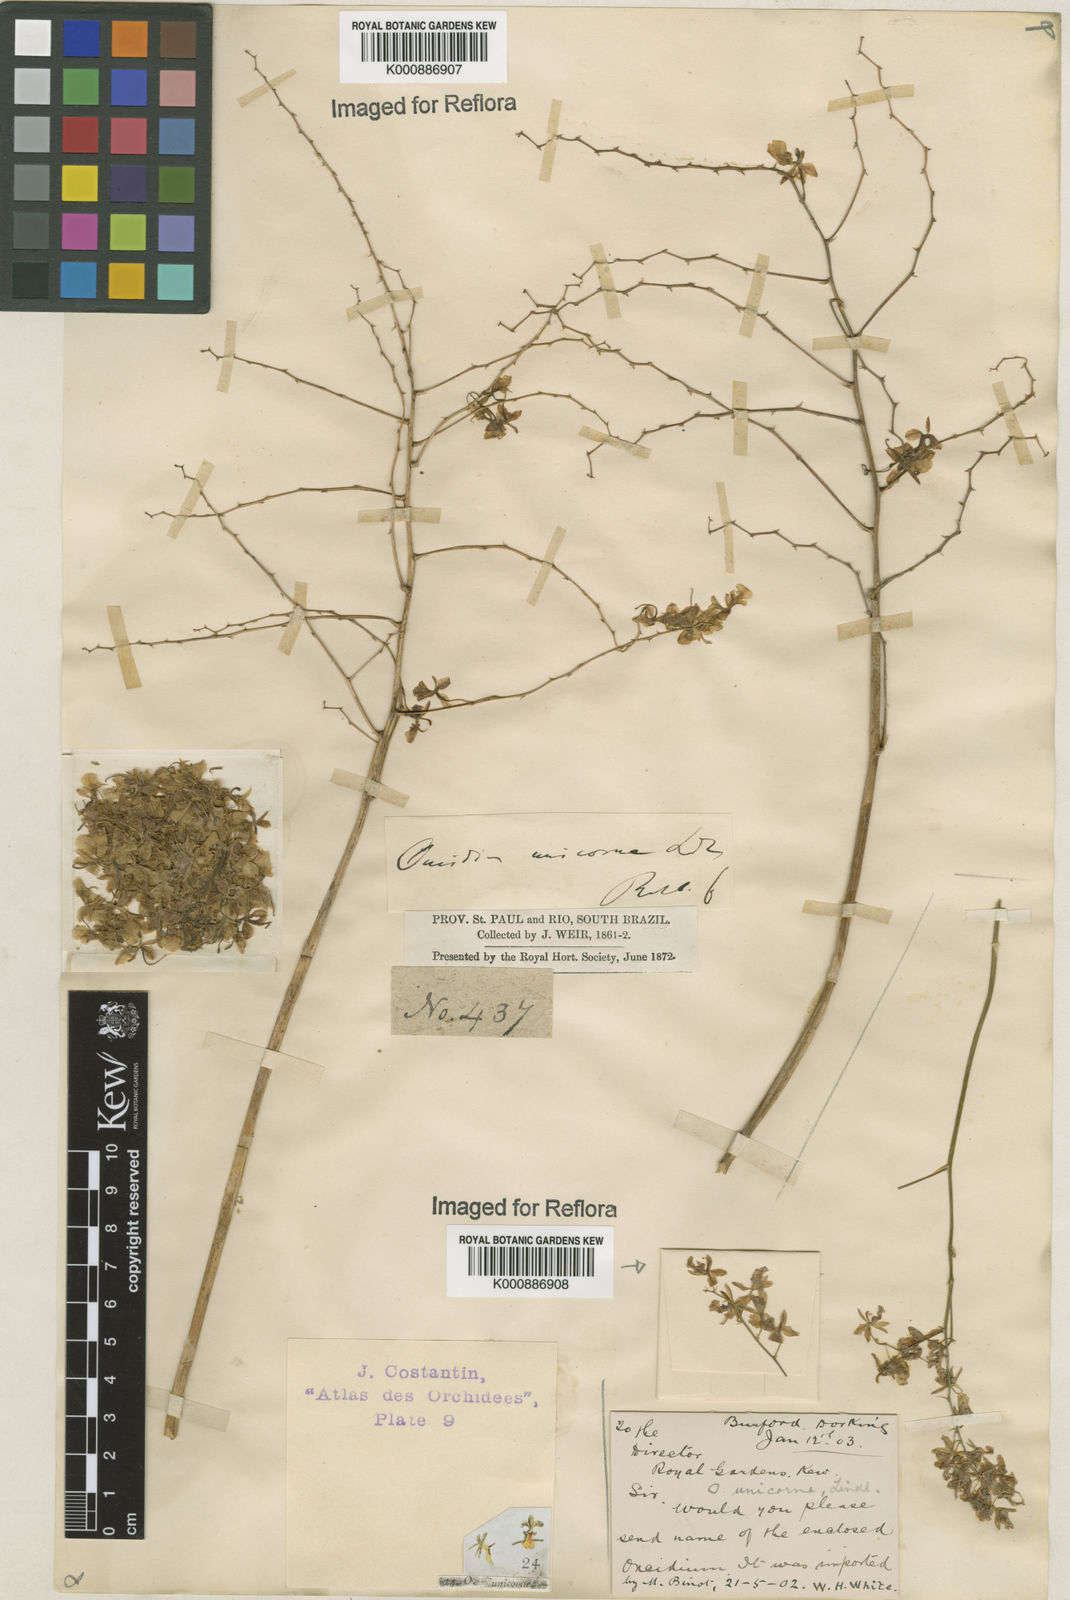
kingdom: Plantae
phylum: Tracheophyta
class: Liliopsida
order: Asparagales
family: Orchidaceae
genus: Gomesa
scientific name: Gomesa florida
